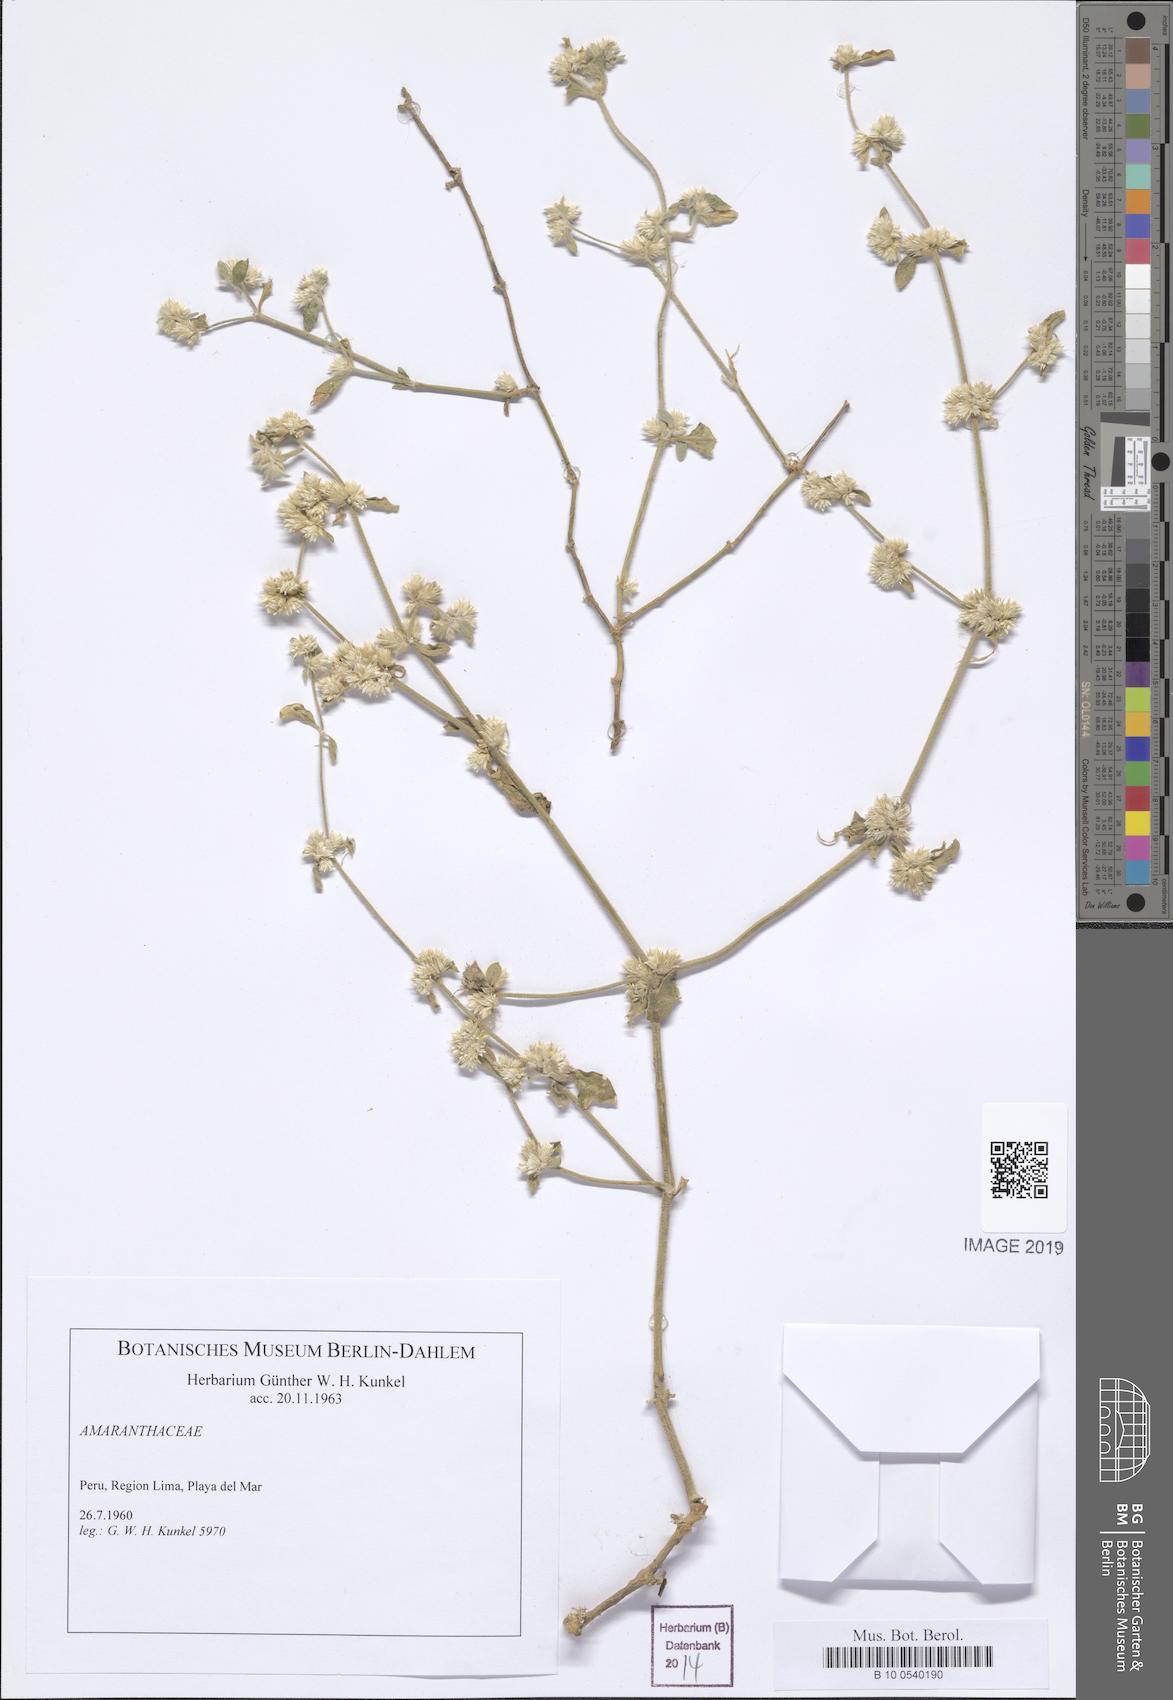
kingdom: Plantae
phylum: Tracheophyta
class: Magnoliopsida
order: Caryophyllales
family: Amaranthaceae
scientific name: Amaranthaceae
